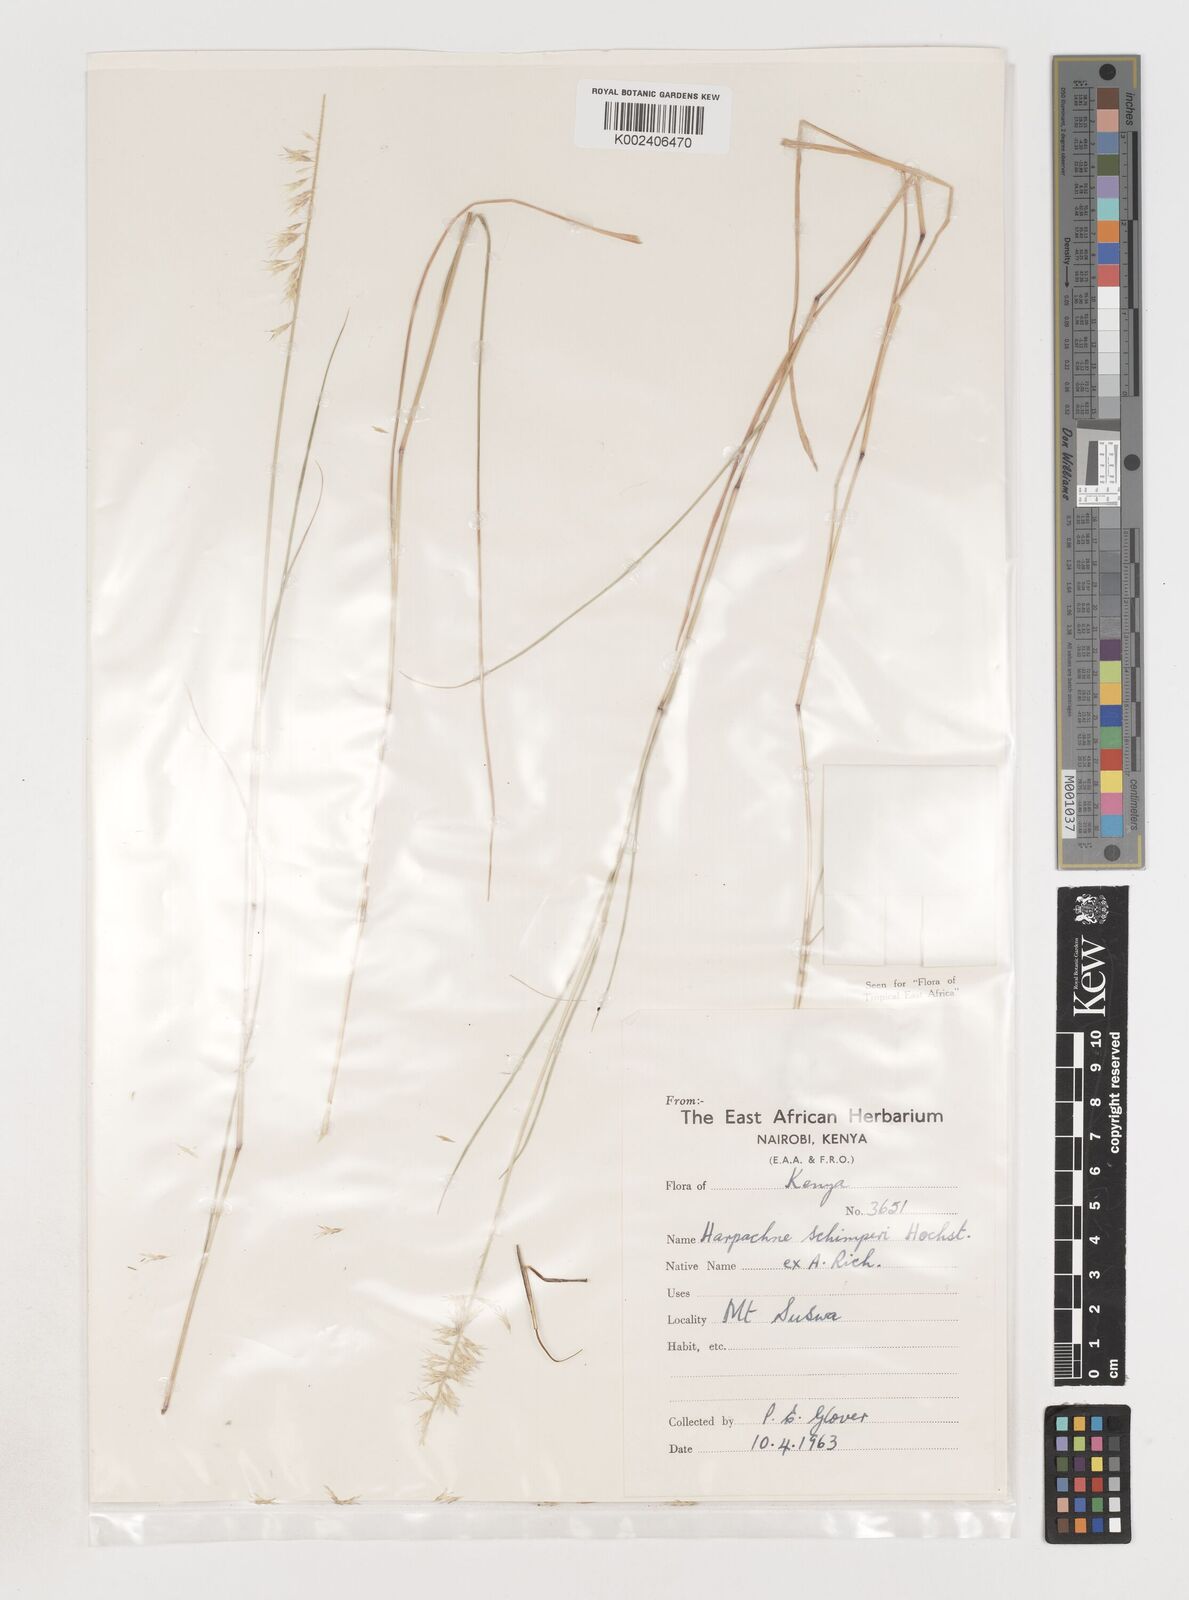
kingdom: Plantae
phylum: Tracheophyta
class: Liliopsida
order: Poales
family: Poaceae
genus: Harpachne
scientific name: Harpachne schimperi
